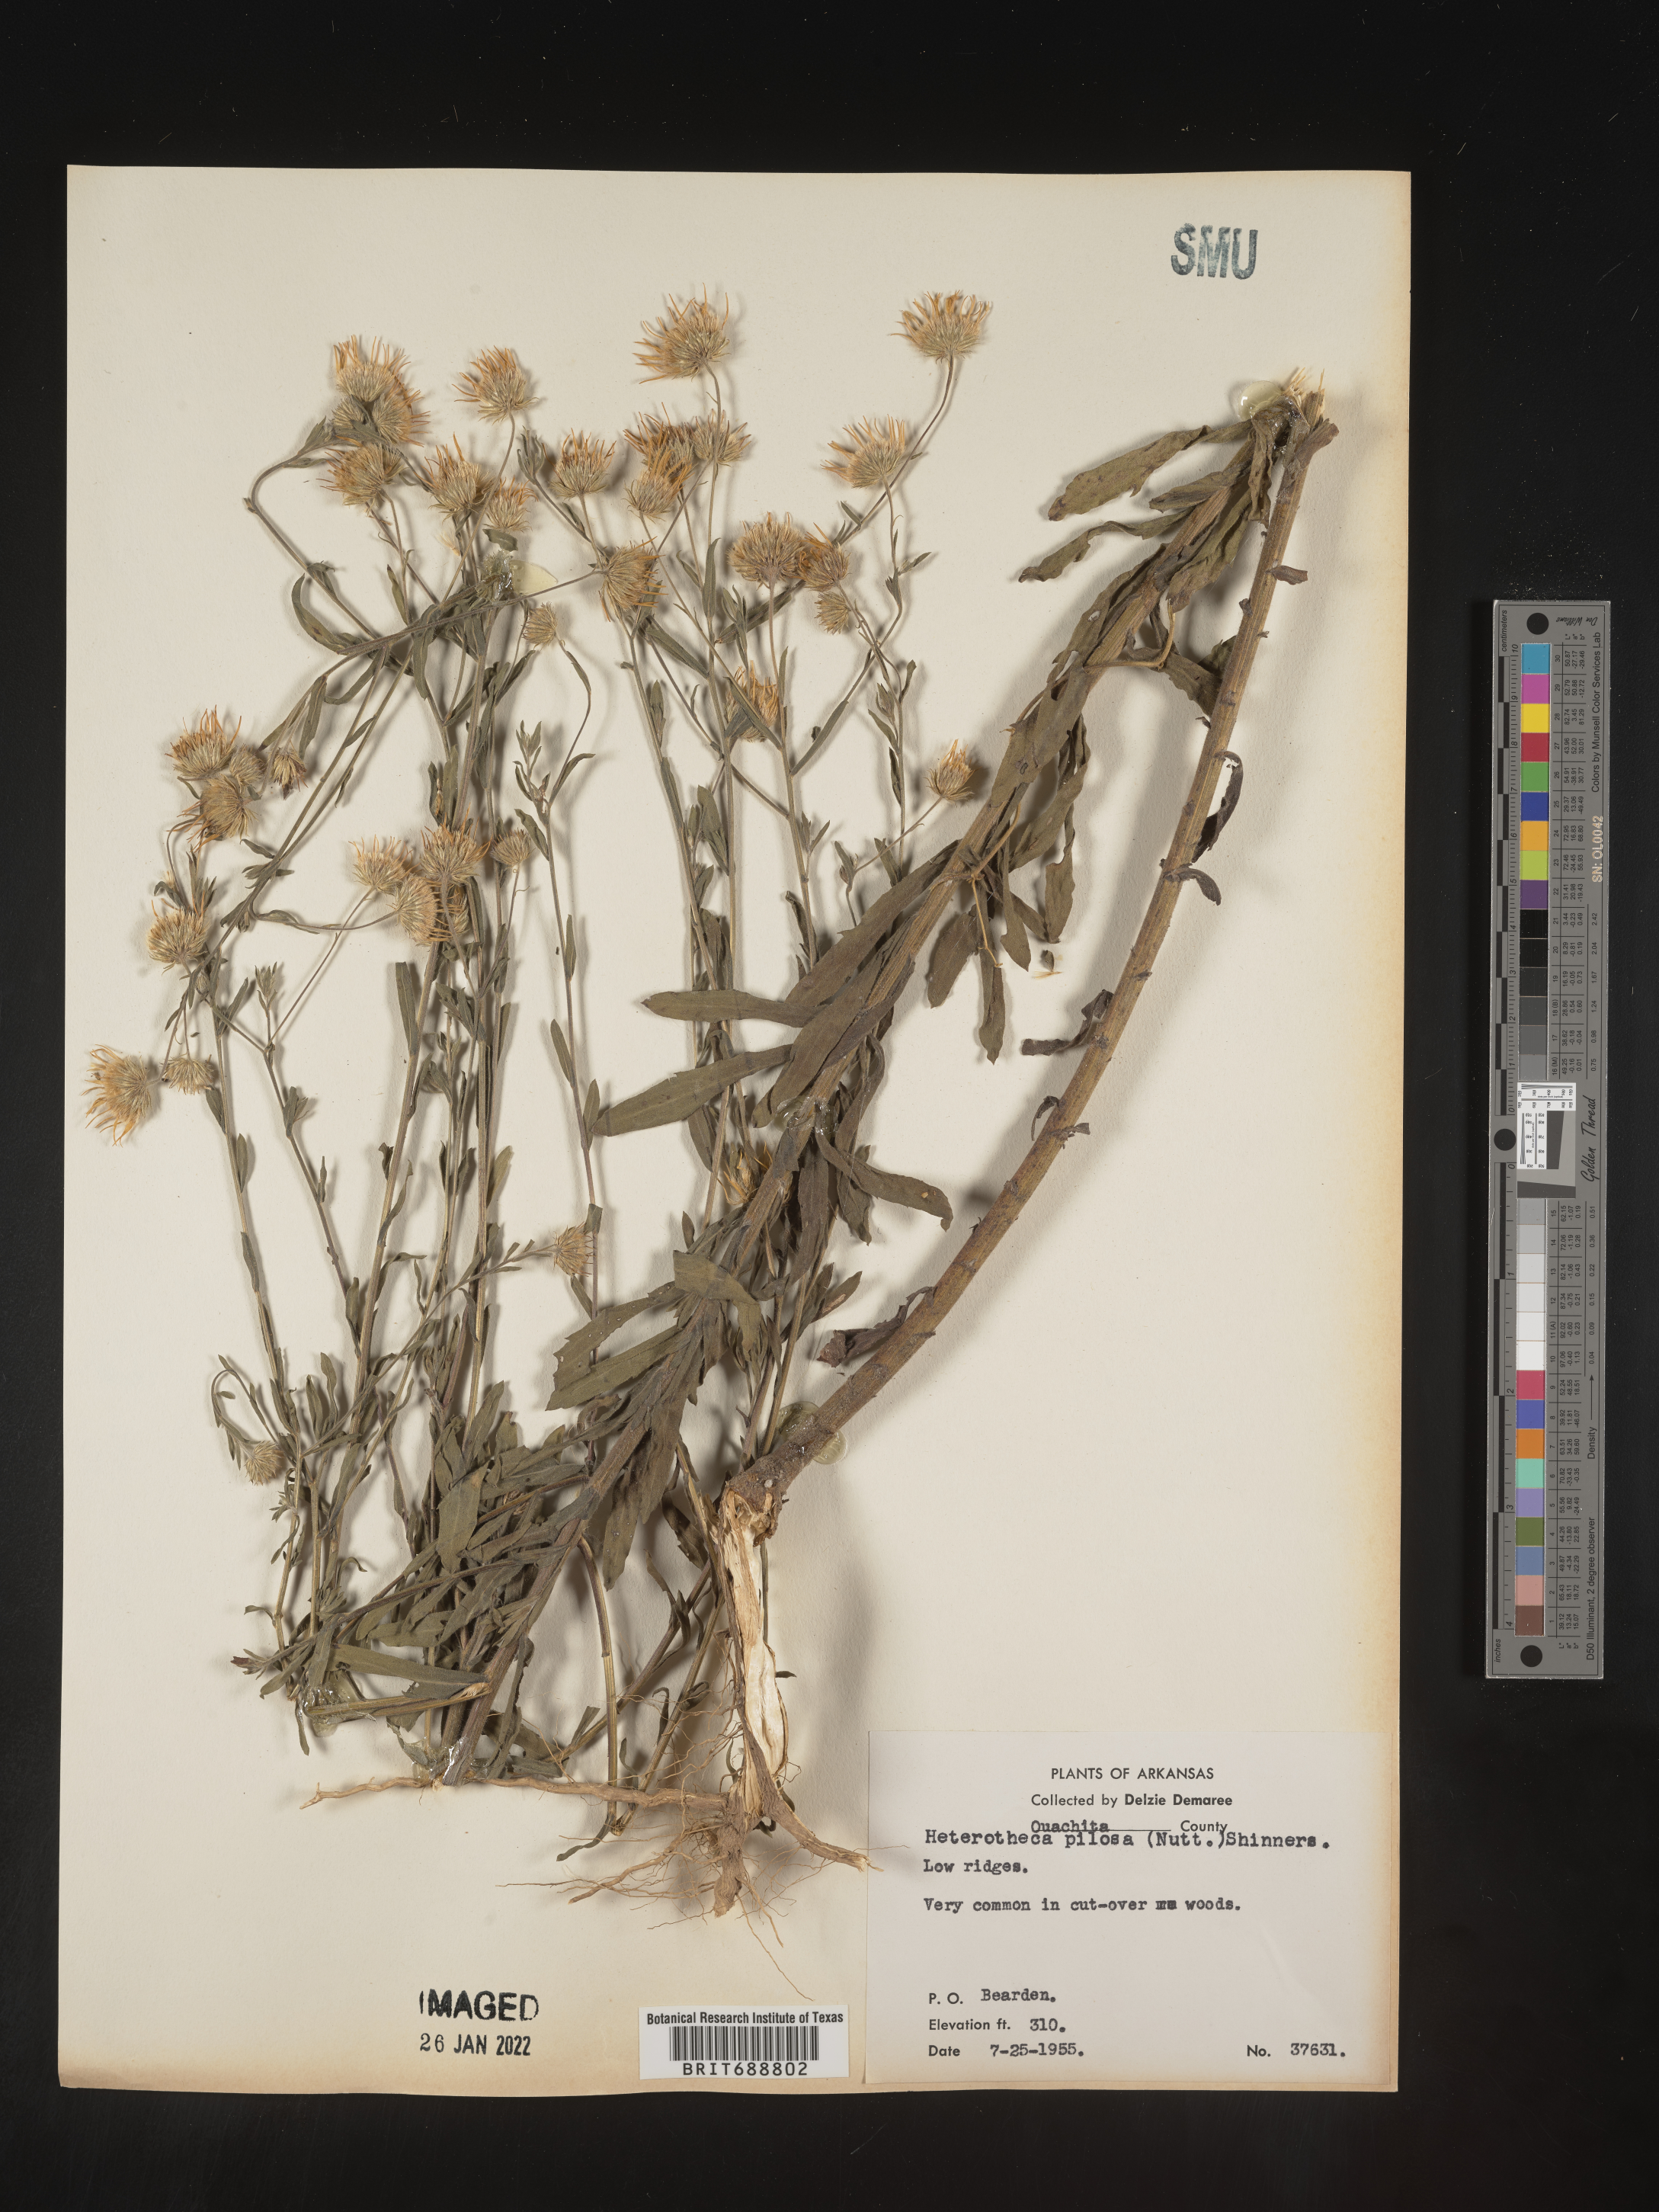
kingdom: Plantae
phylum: Tracheophyta
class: Magnoliopsida
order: Asterales
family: Asteraceae
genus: Bradburia
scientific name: Bradburia pilosa
